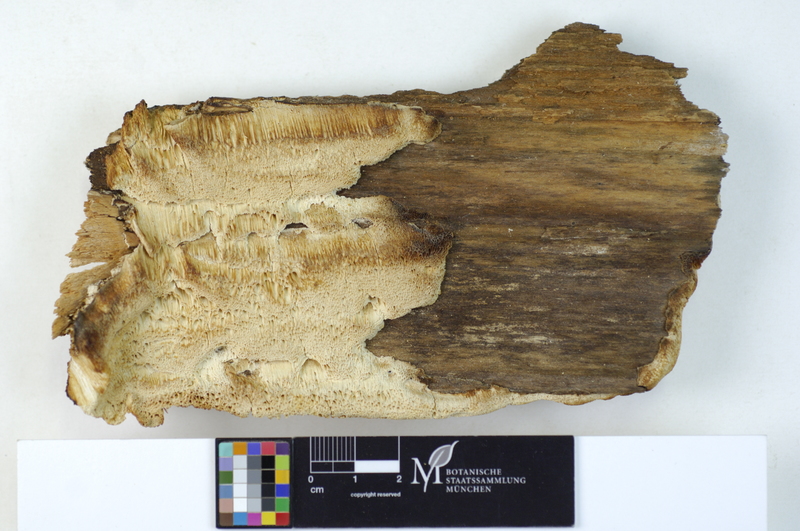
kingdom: Plantae
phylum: Tracheophyta
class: Pinopsida
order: Pinales
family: Pinaceae
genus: Picea
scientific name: Picea
